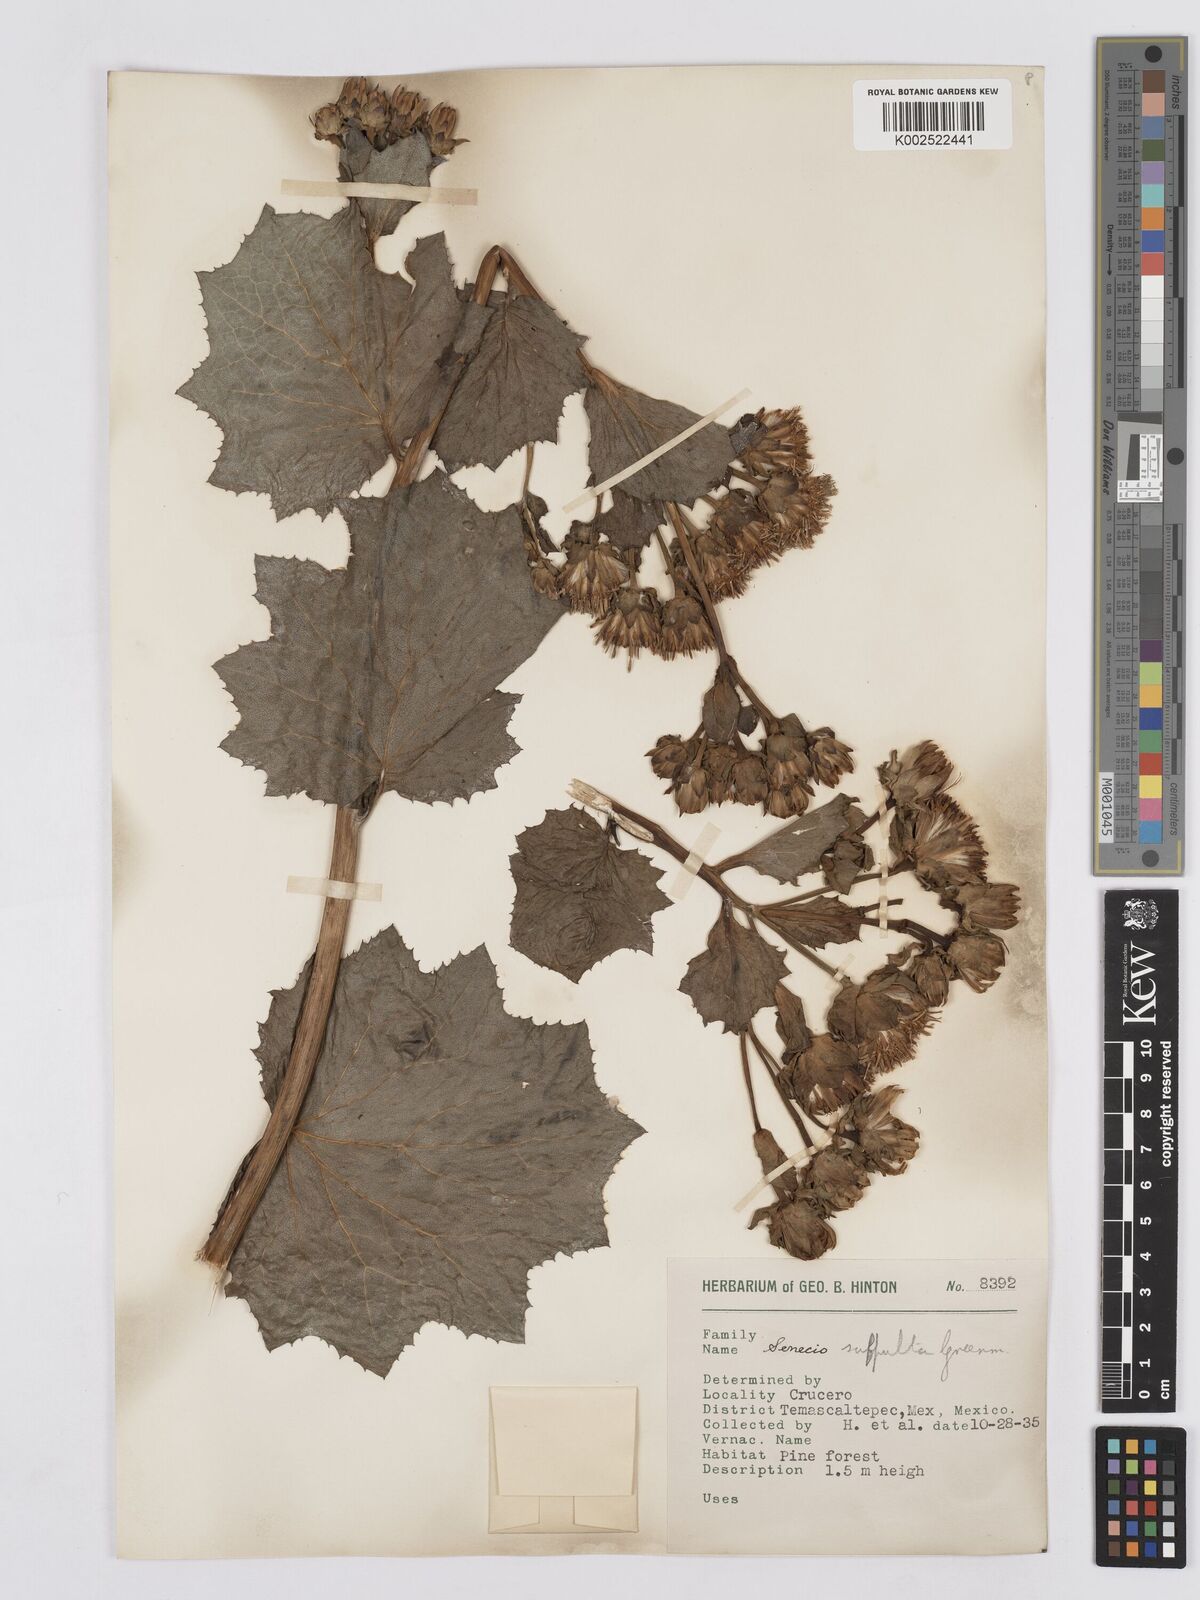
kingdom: Plantae
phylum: Tracheophyta
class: Magnoliopsida
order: Asterales
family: Asteraceae
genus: Roldana
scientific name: Roldana suffulta
